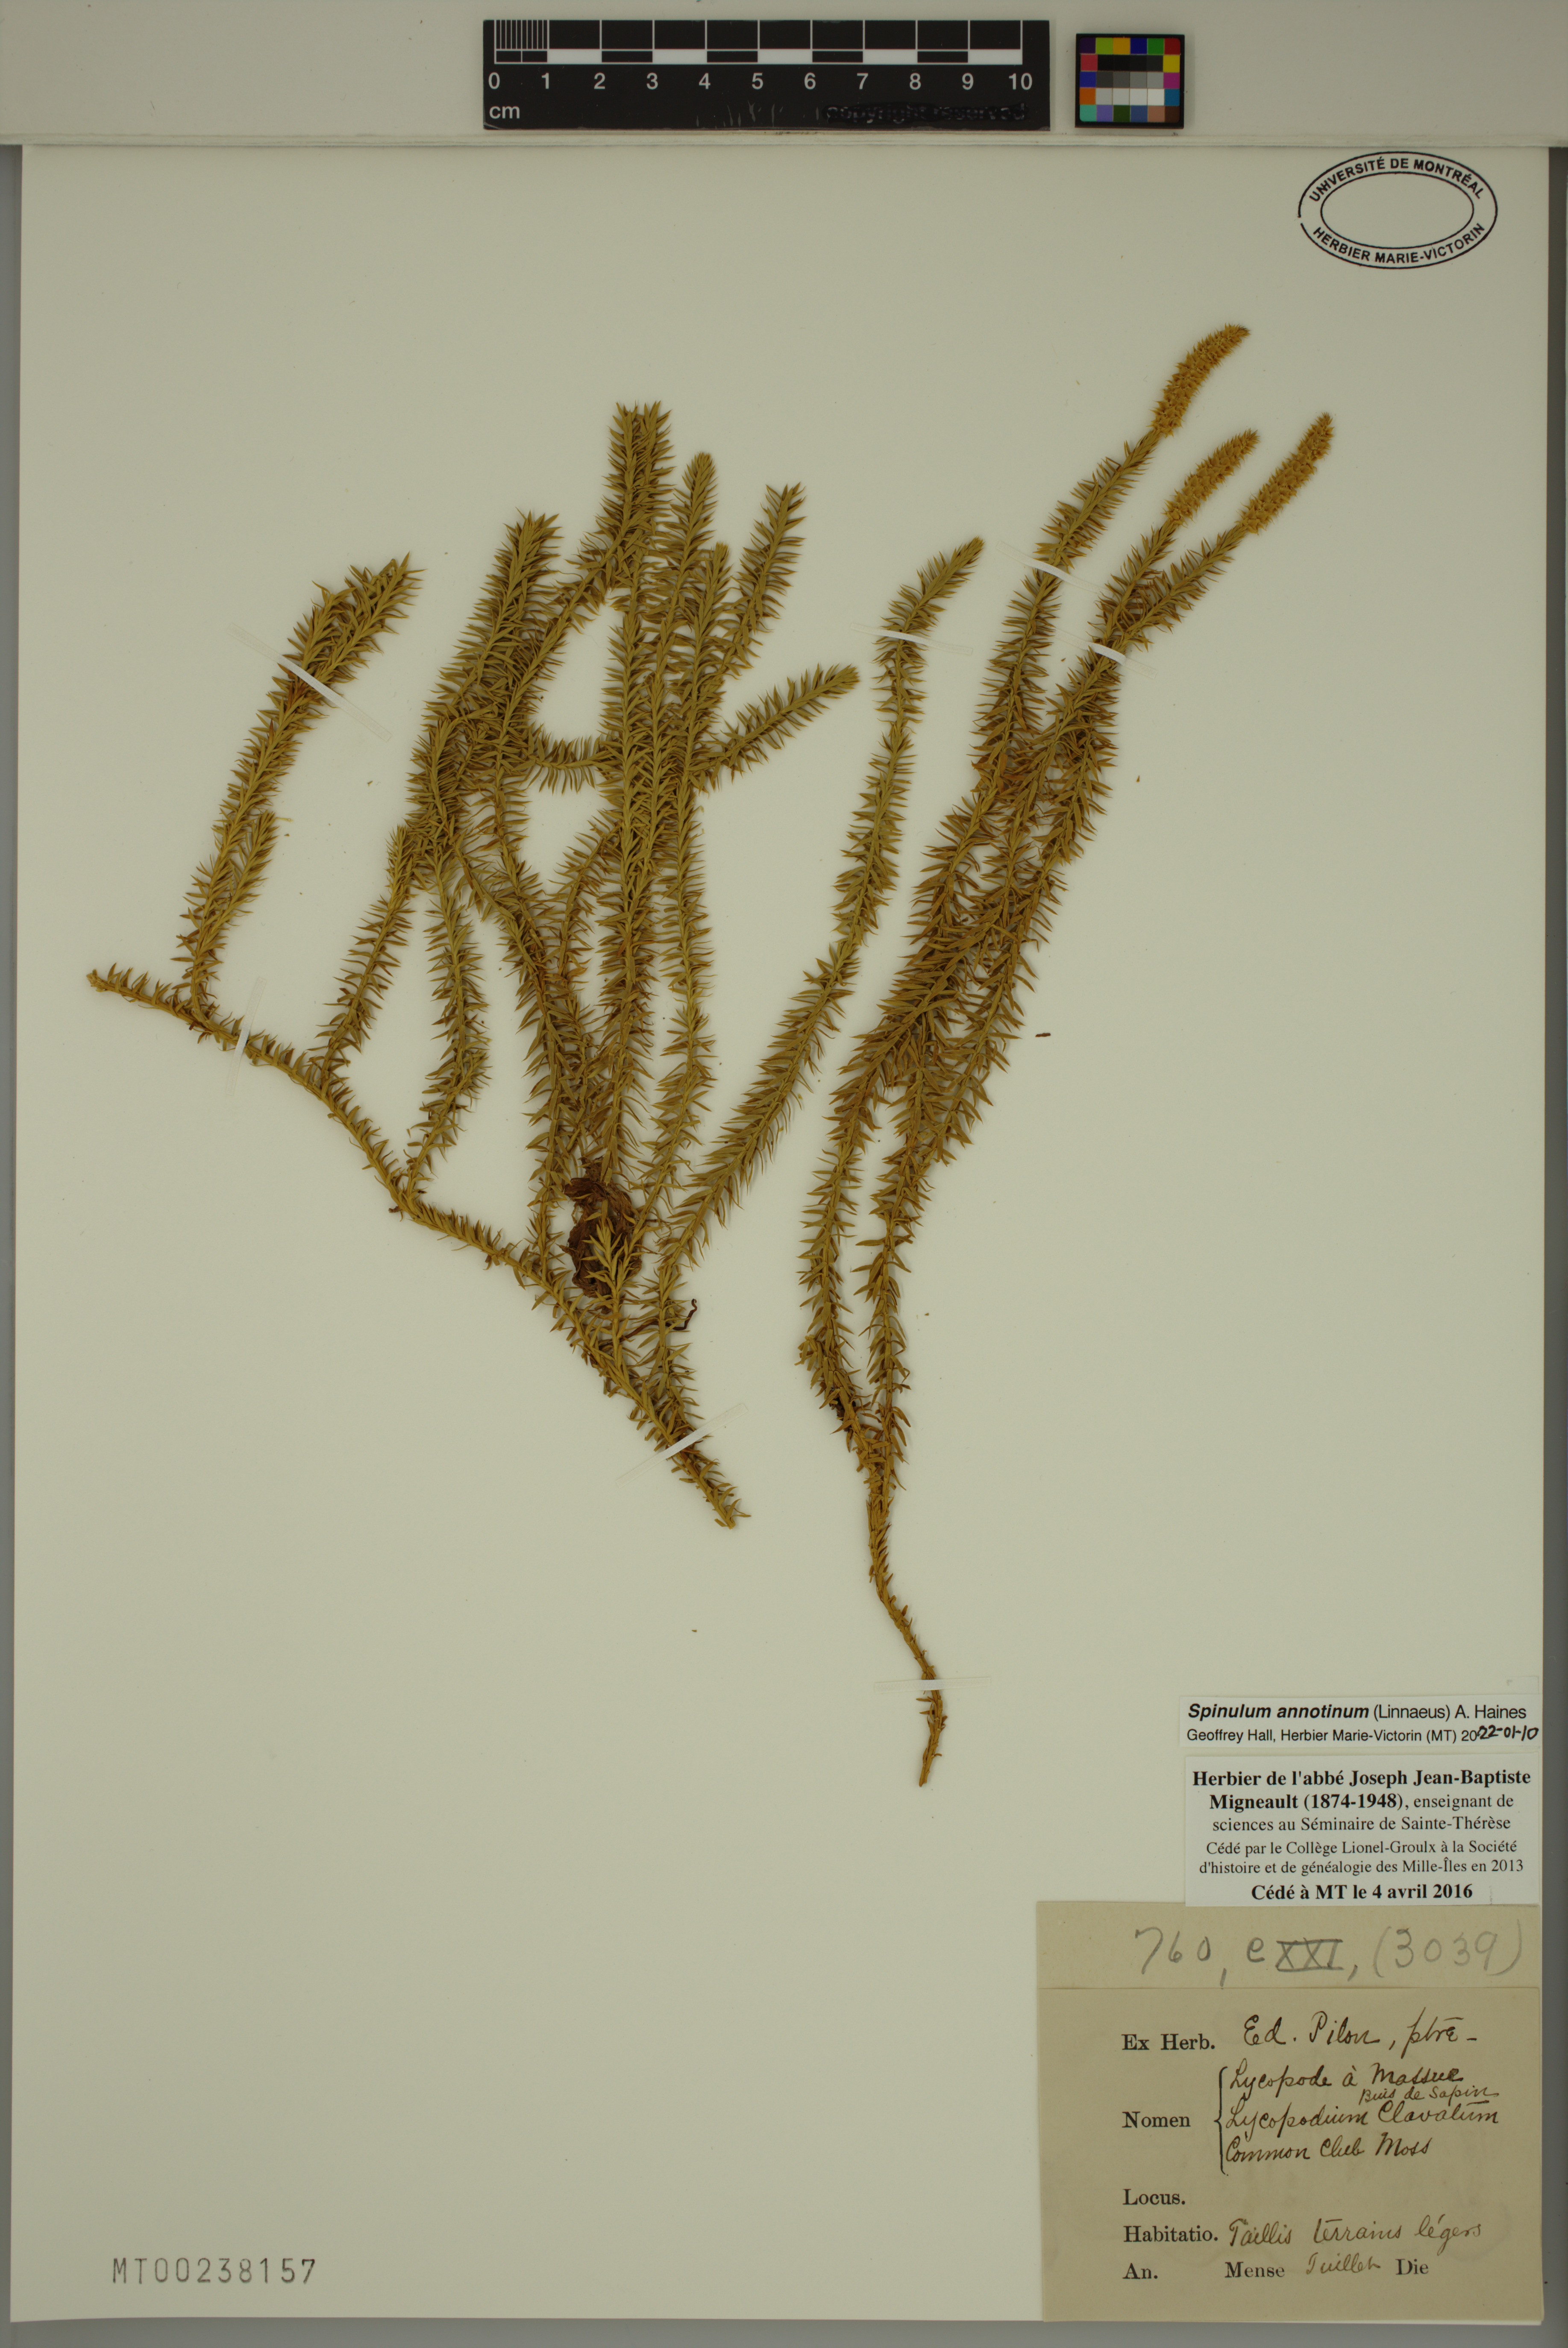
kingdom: Plantae
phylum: Tracheophyta
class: Lycopodiopsida
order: Lycopodiales
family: Lycopodiaceae
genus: Spinulum
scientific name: Spinulum annotinum
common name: Interrupted club-moss
